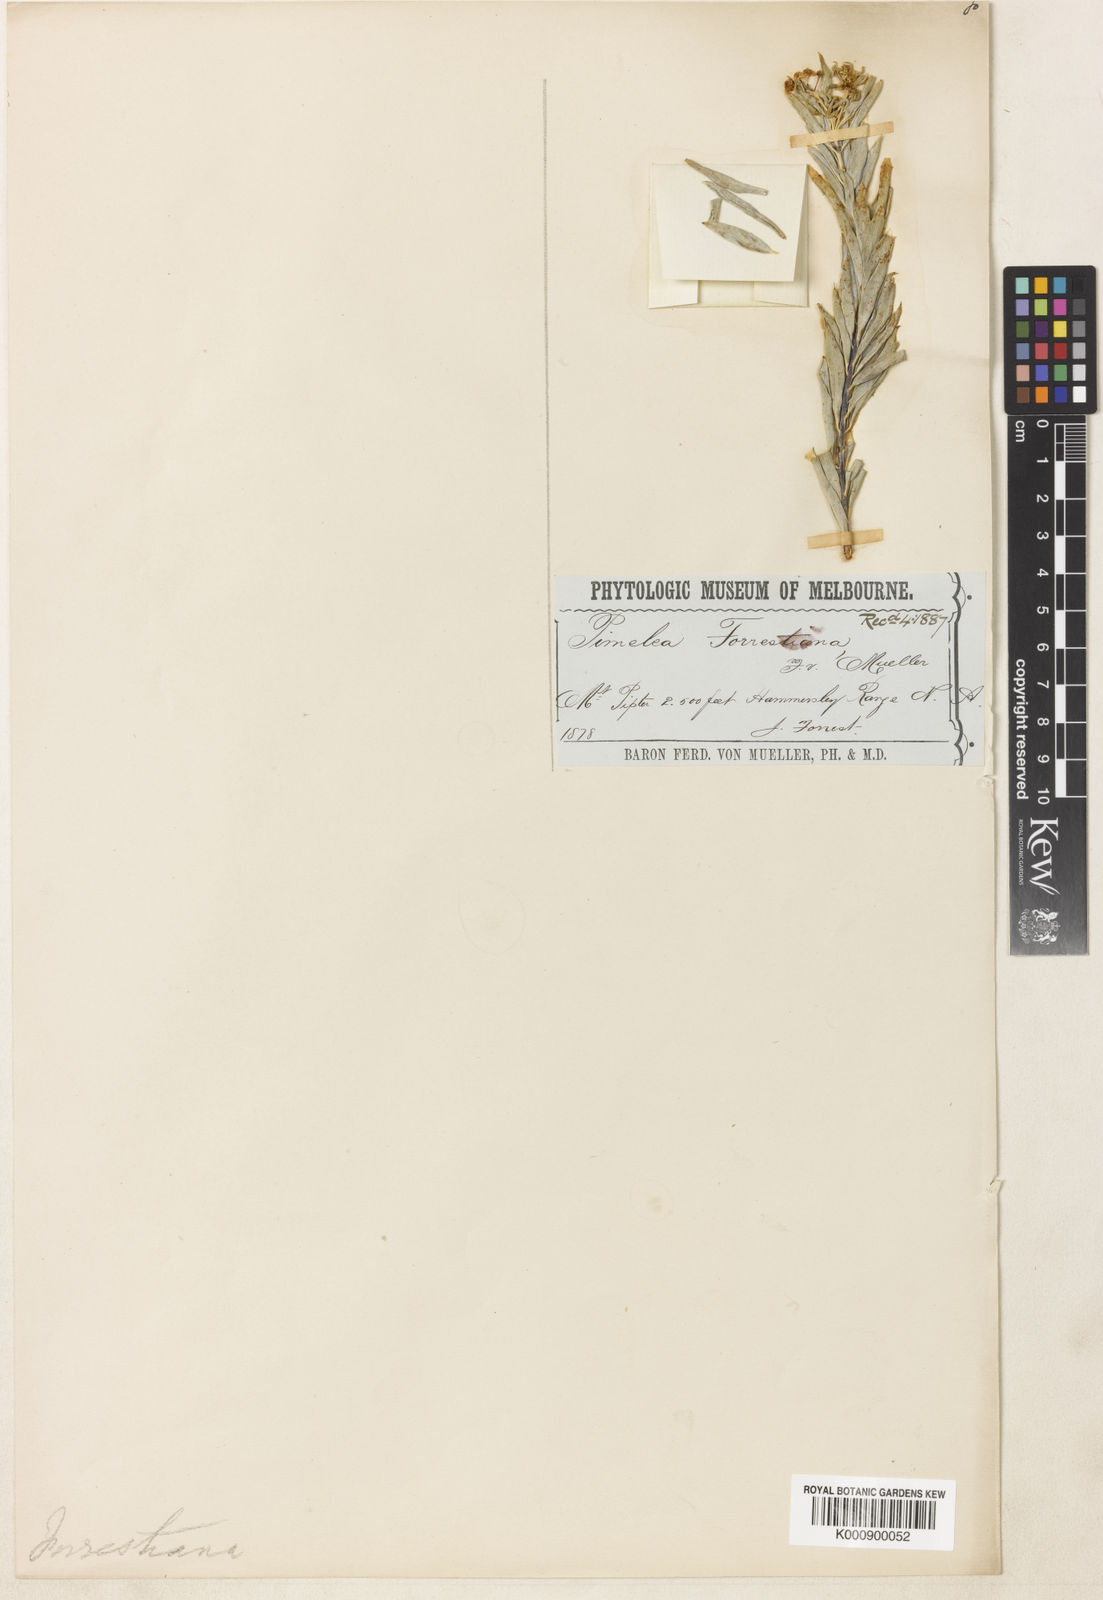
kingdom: Plantae
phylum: Tracheophyta
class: Magnoliopsida
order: Malvales
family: Thymelaeaceae
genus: Pimelea
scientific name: Pimelea forrestiana
